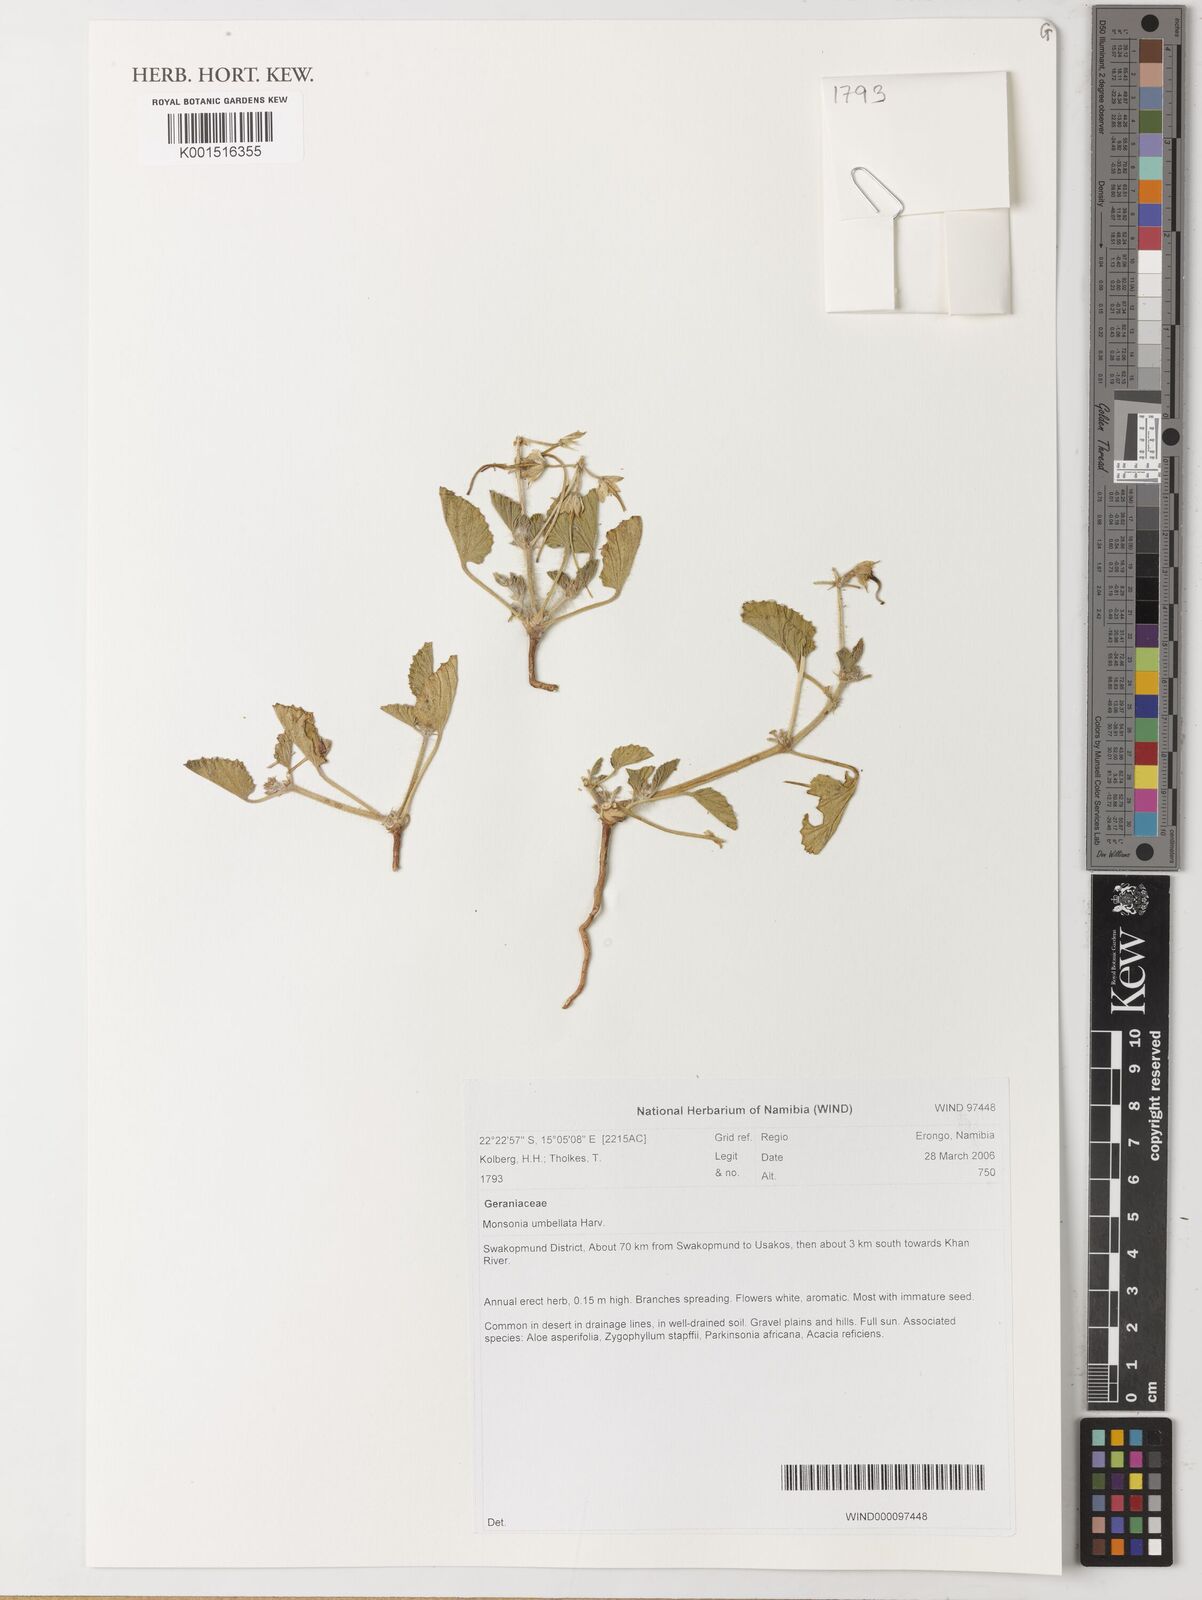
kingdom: Plantae
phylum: Tracheophyta
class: Magnoliopsida
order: Geraniales
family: Geraniaceae
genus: Monsonia
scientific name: Monsonia umbellata
